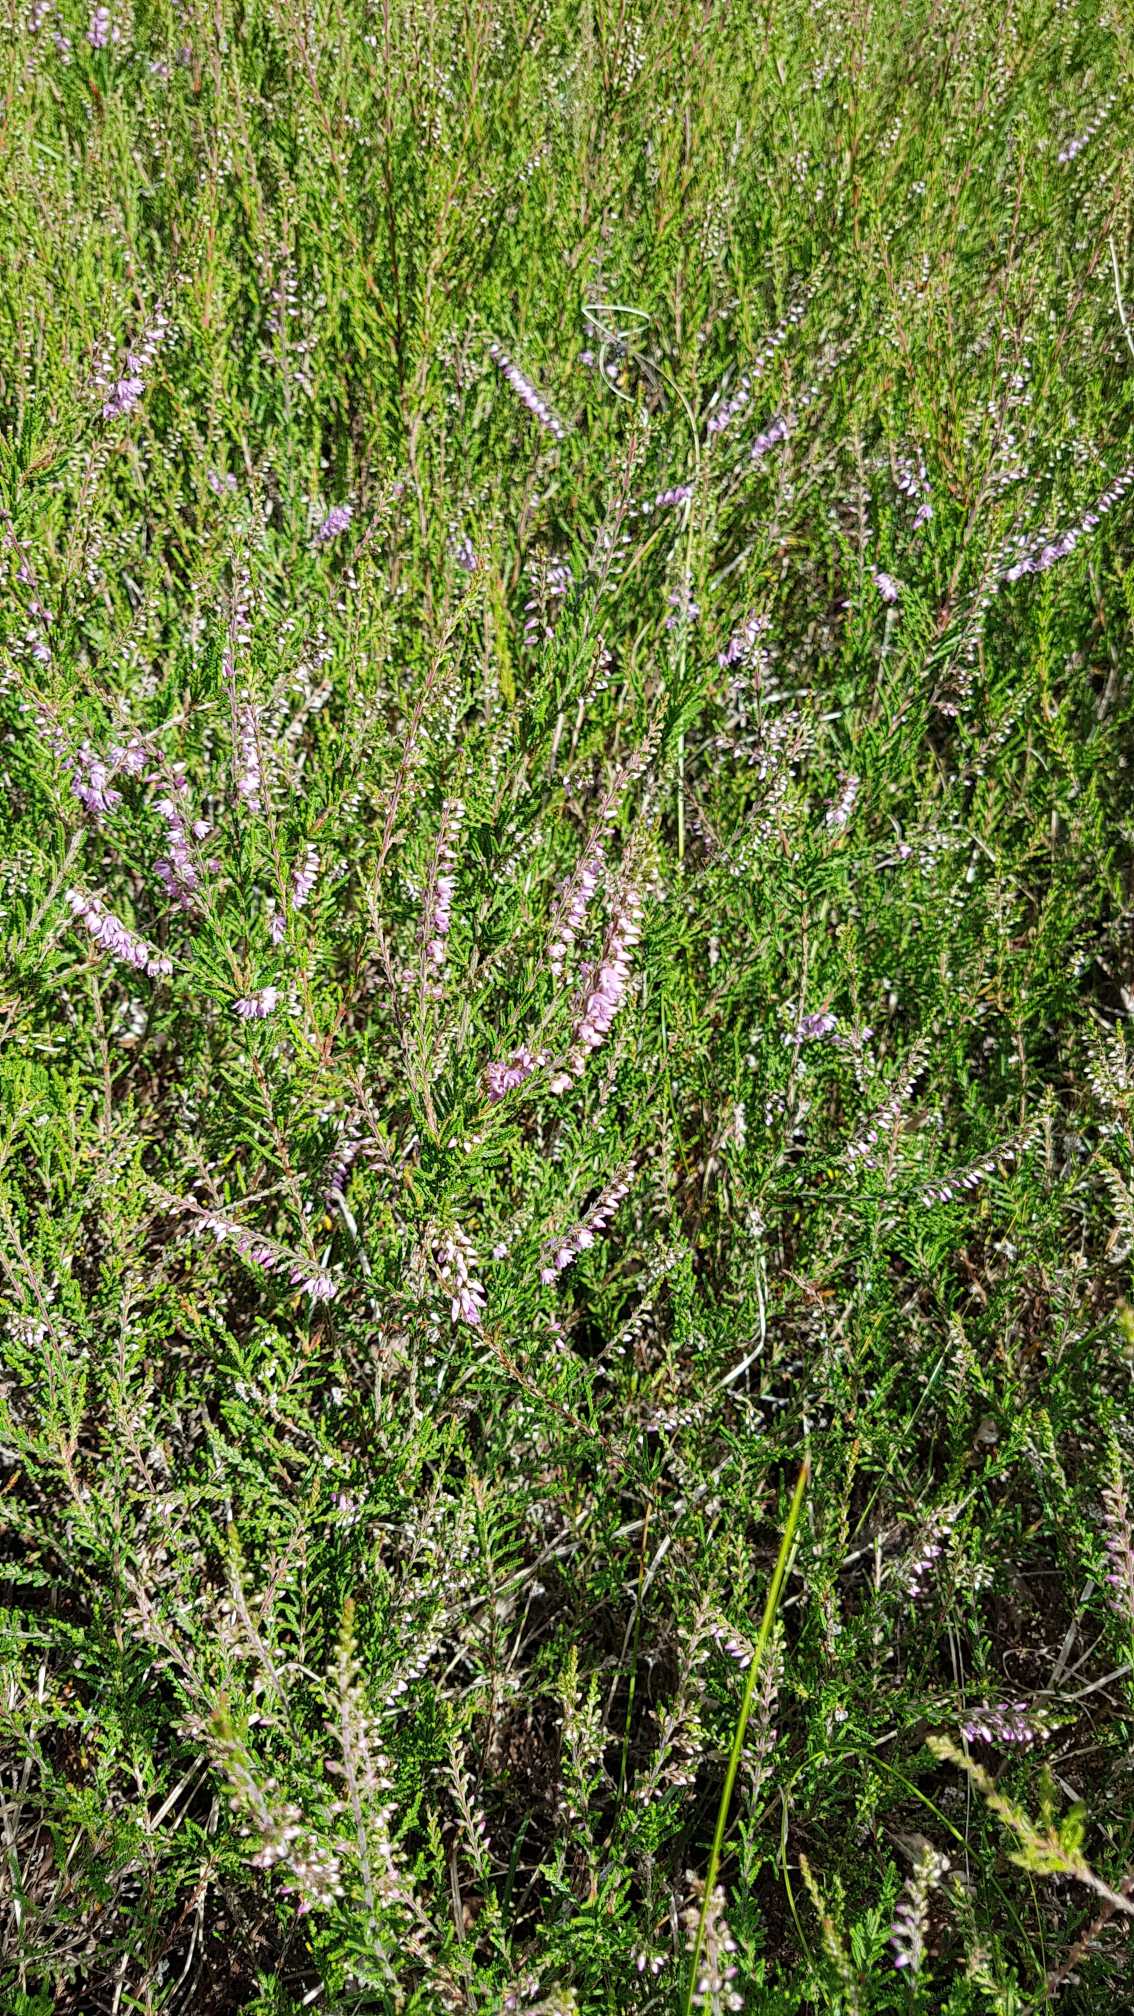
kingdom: Plantae
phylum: Tracheophyta
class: Magnoliopsida
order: Ericales
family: Ericaceae
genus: Calluna
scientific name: Calluna vulgaris
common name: Hedelyng
